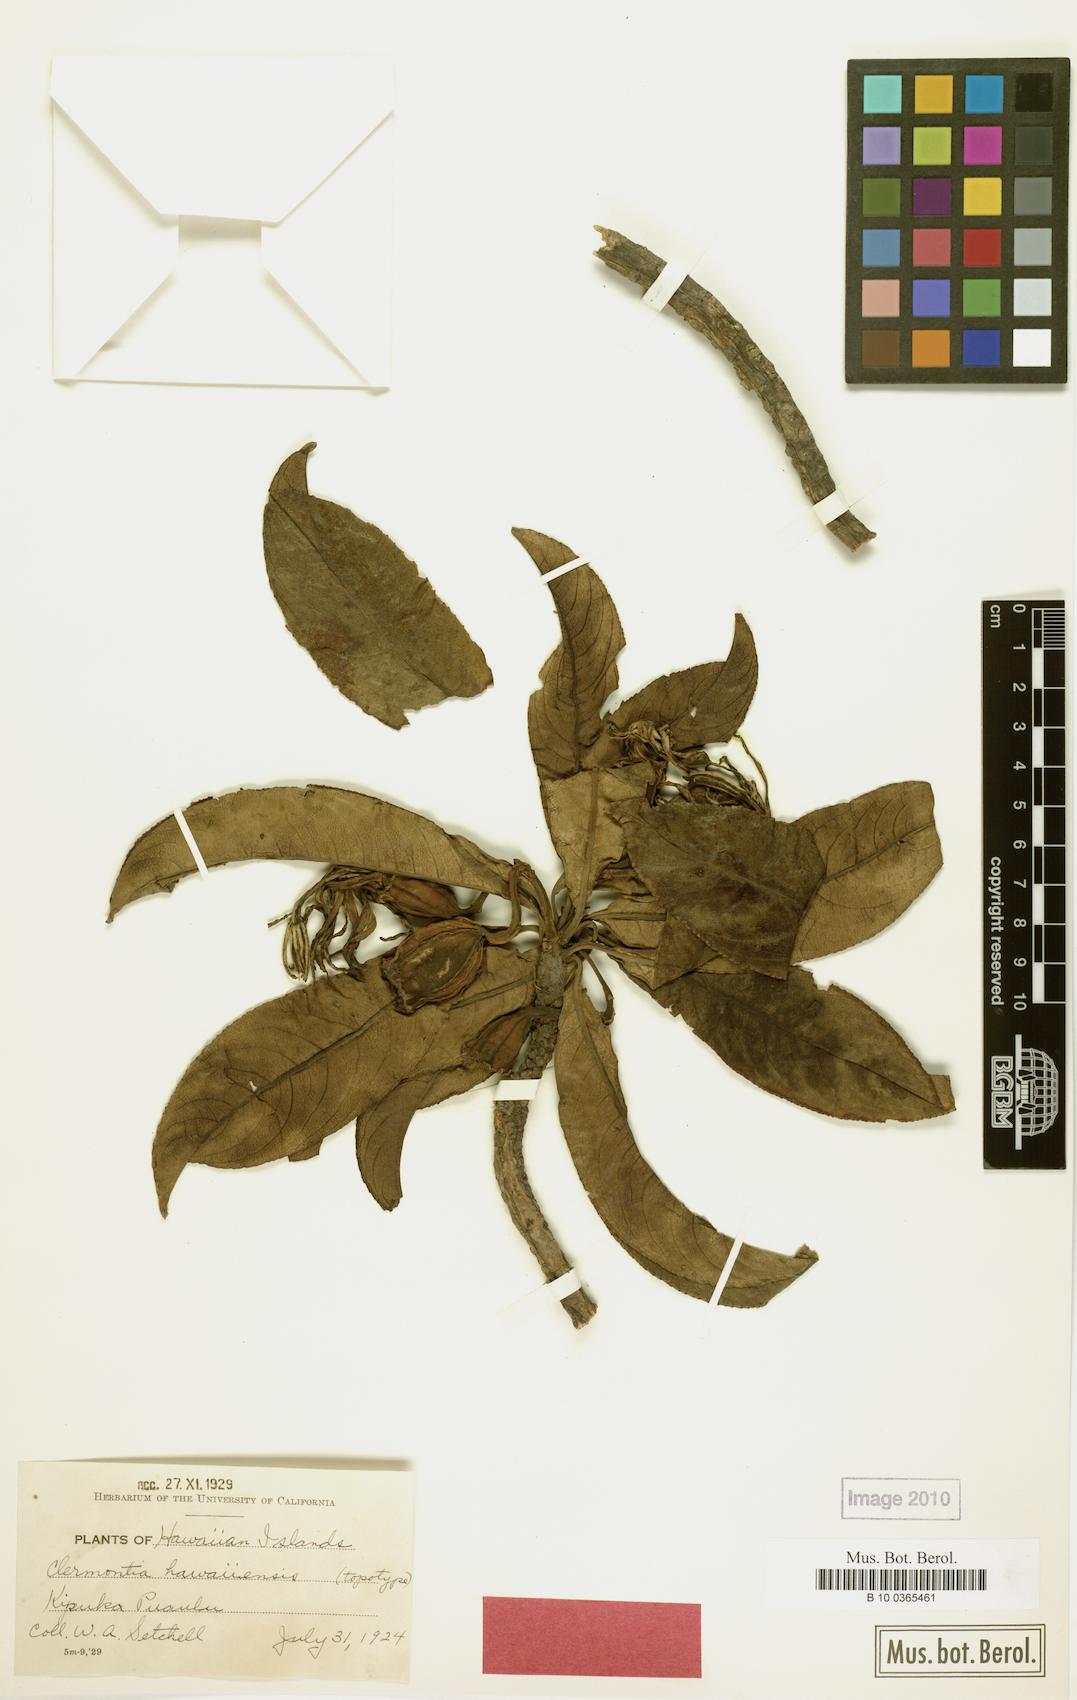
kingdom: Plantae
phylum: Tracheophyta
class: Magnoliopsida
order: Asterales
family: Campanulaceae
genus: Clermontia
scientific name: Clermontia hawaiiensis
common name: Hawaii clermontia
